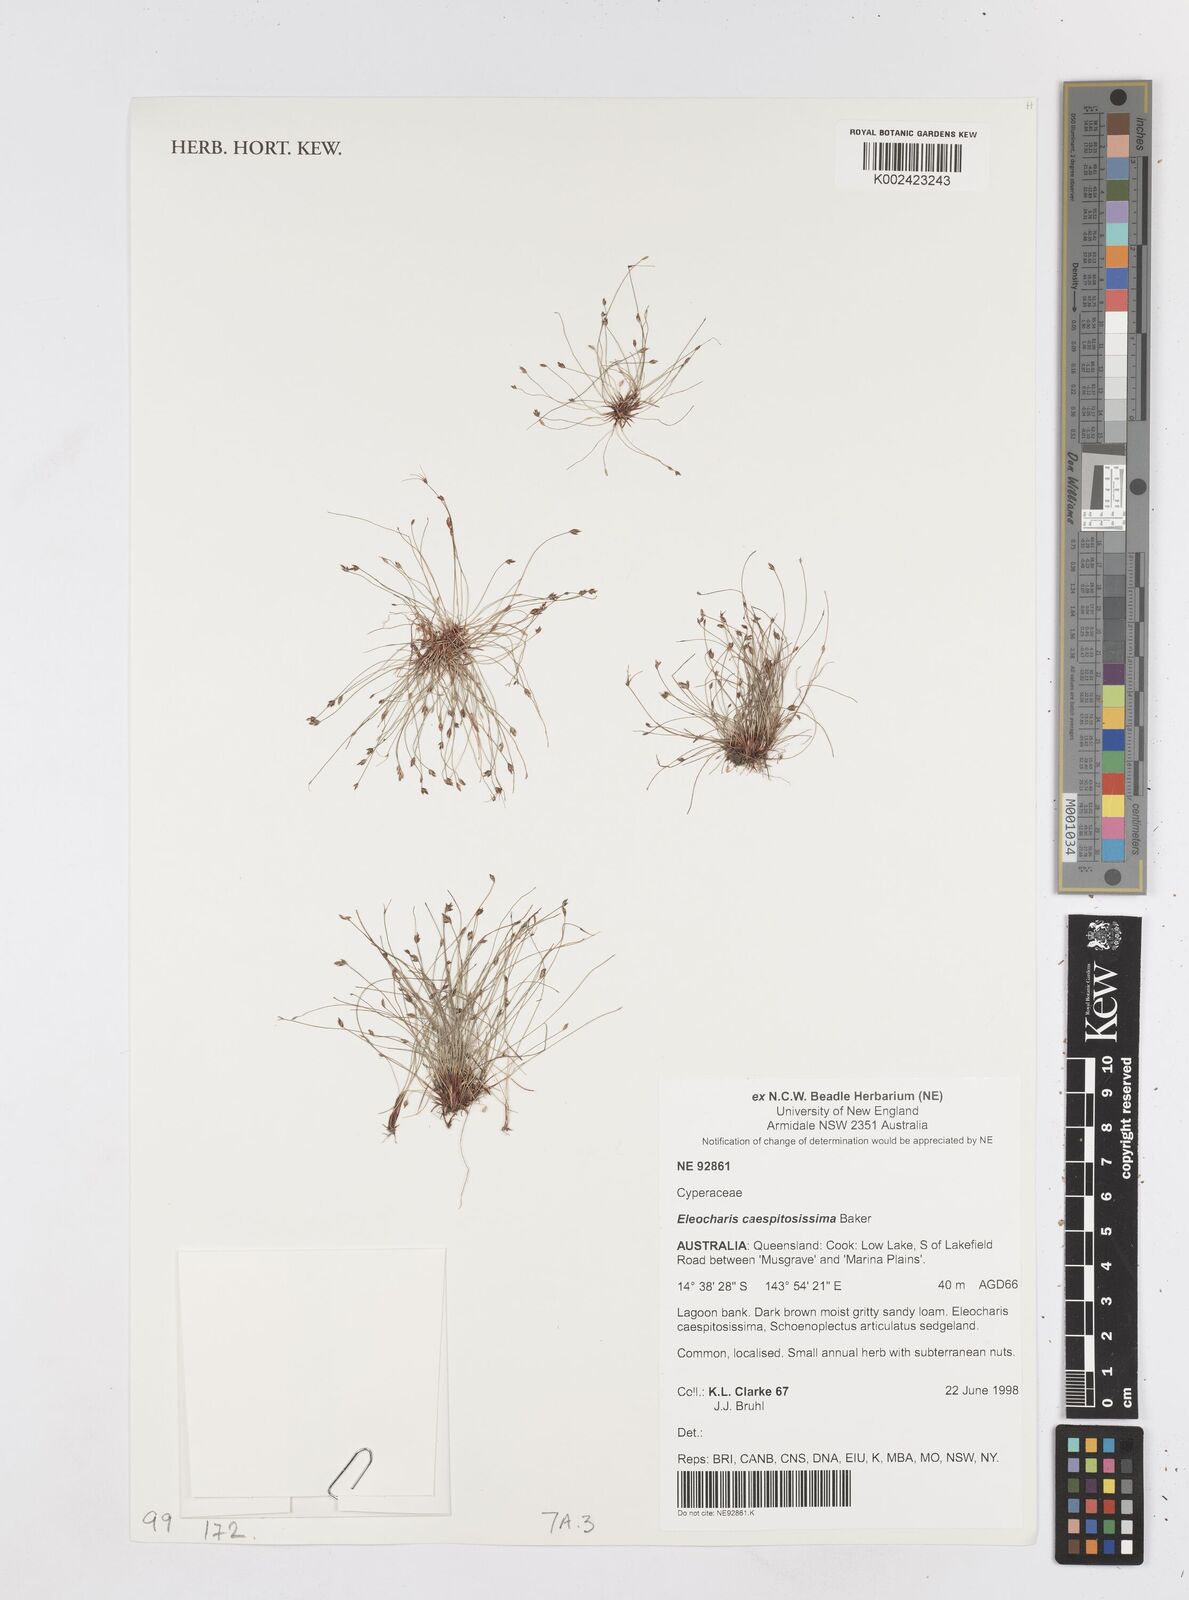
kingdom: Plantae
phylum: Tracheophyta
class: Liliopsida
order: Poales
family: Cyperaceae
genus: Eleocharis
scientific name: Eleocharis caespitosissima
